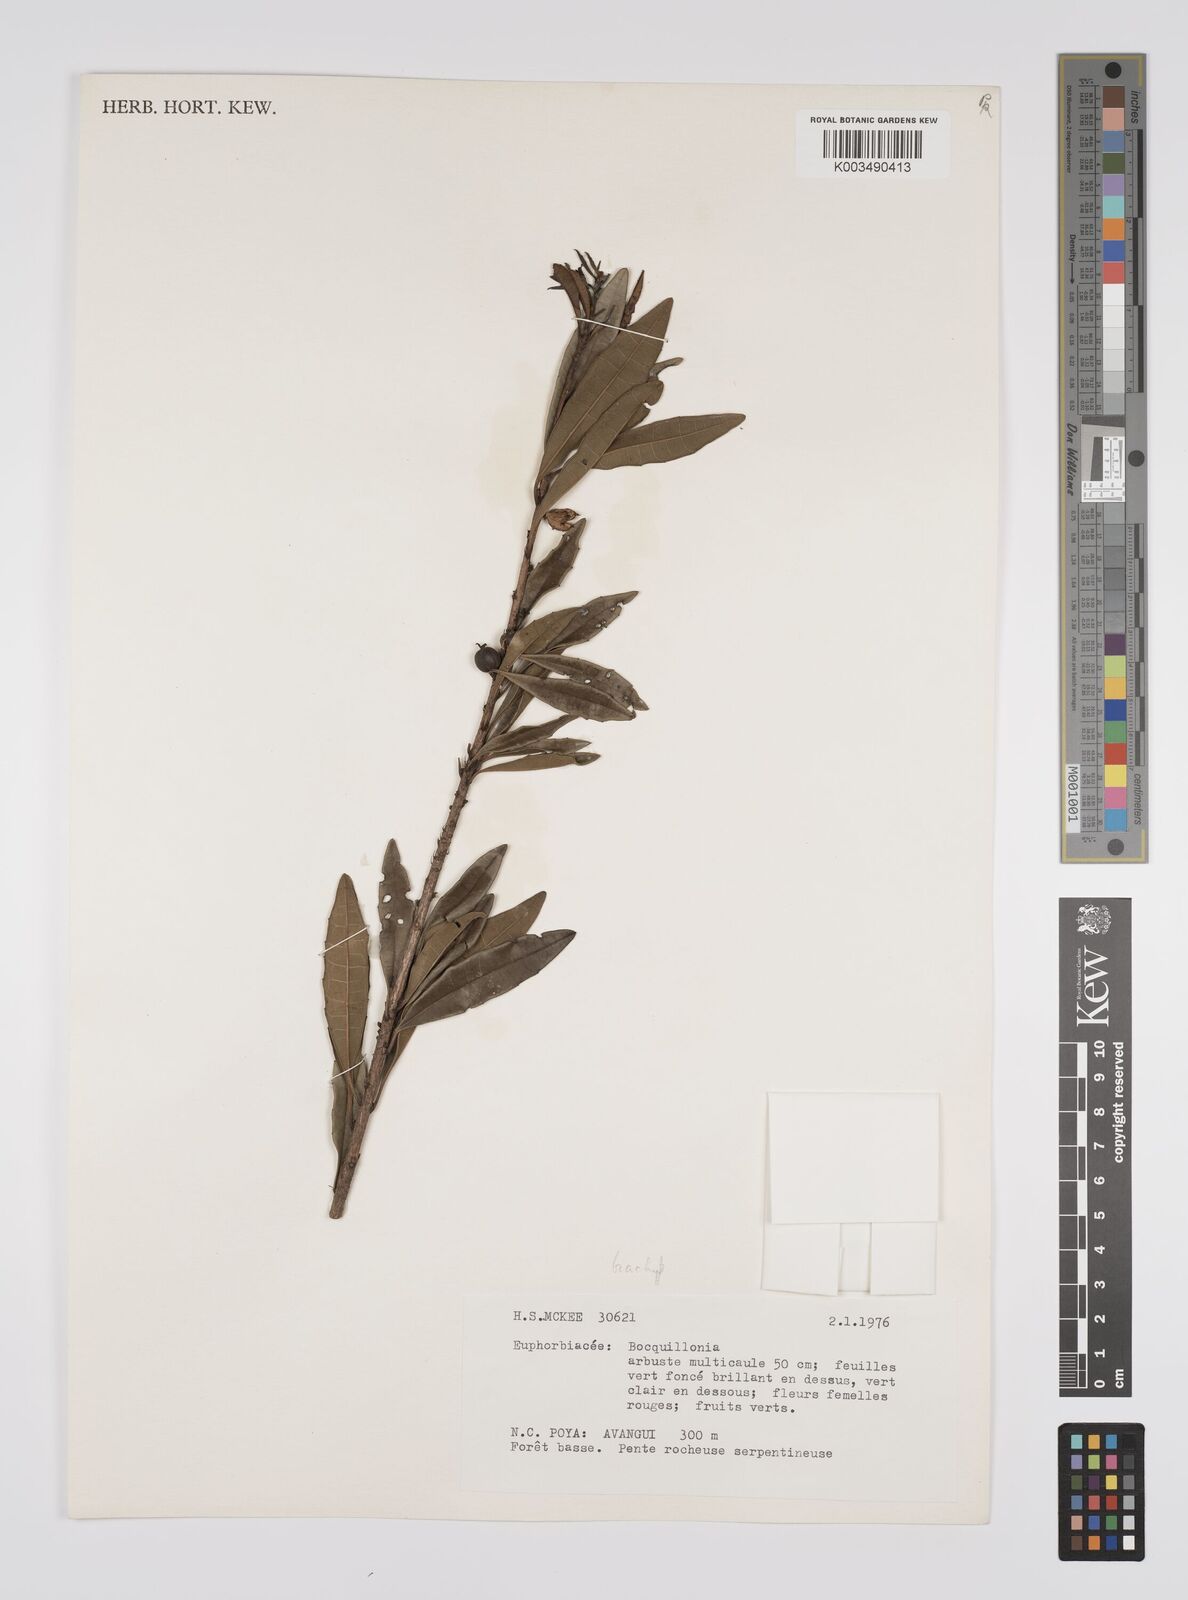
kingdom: Plantae
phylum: Tracheophyta
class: Magnoliopsida
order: Malpighiales
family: Euphorbiaceae
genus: Bocquillonia
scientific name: Bocquillonia brachypoda
